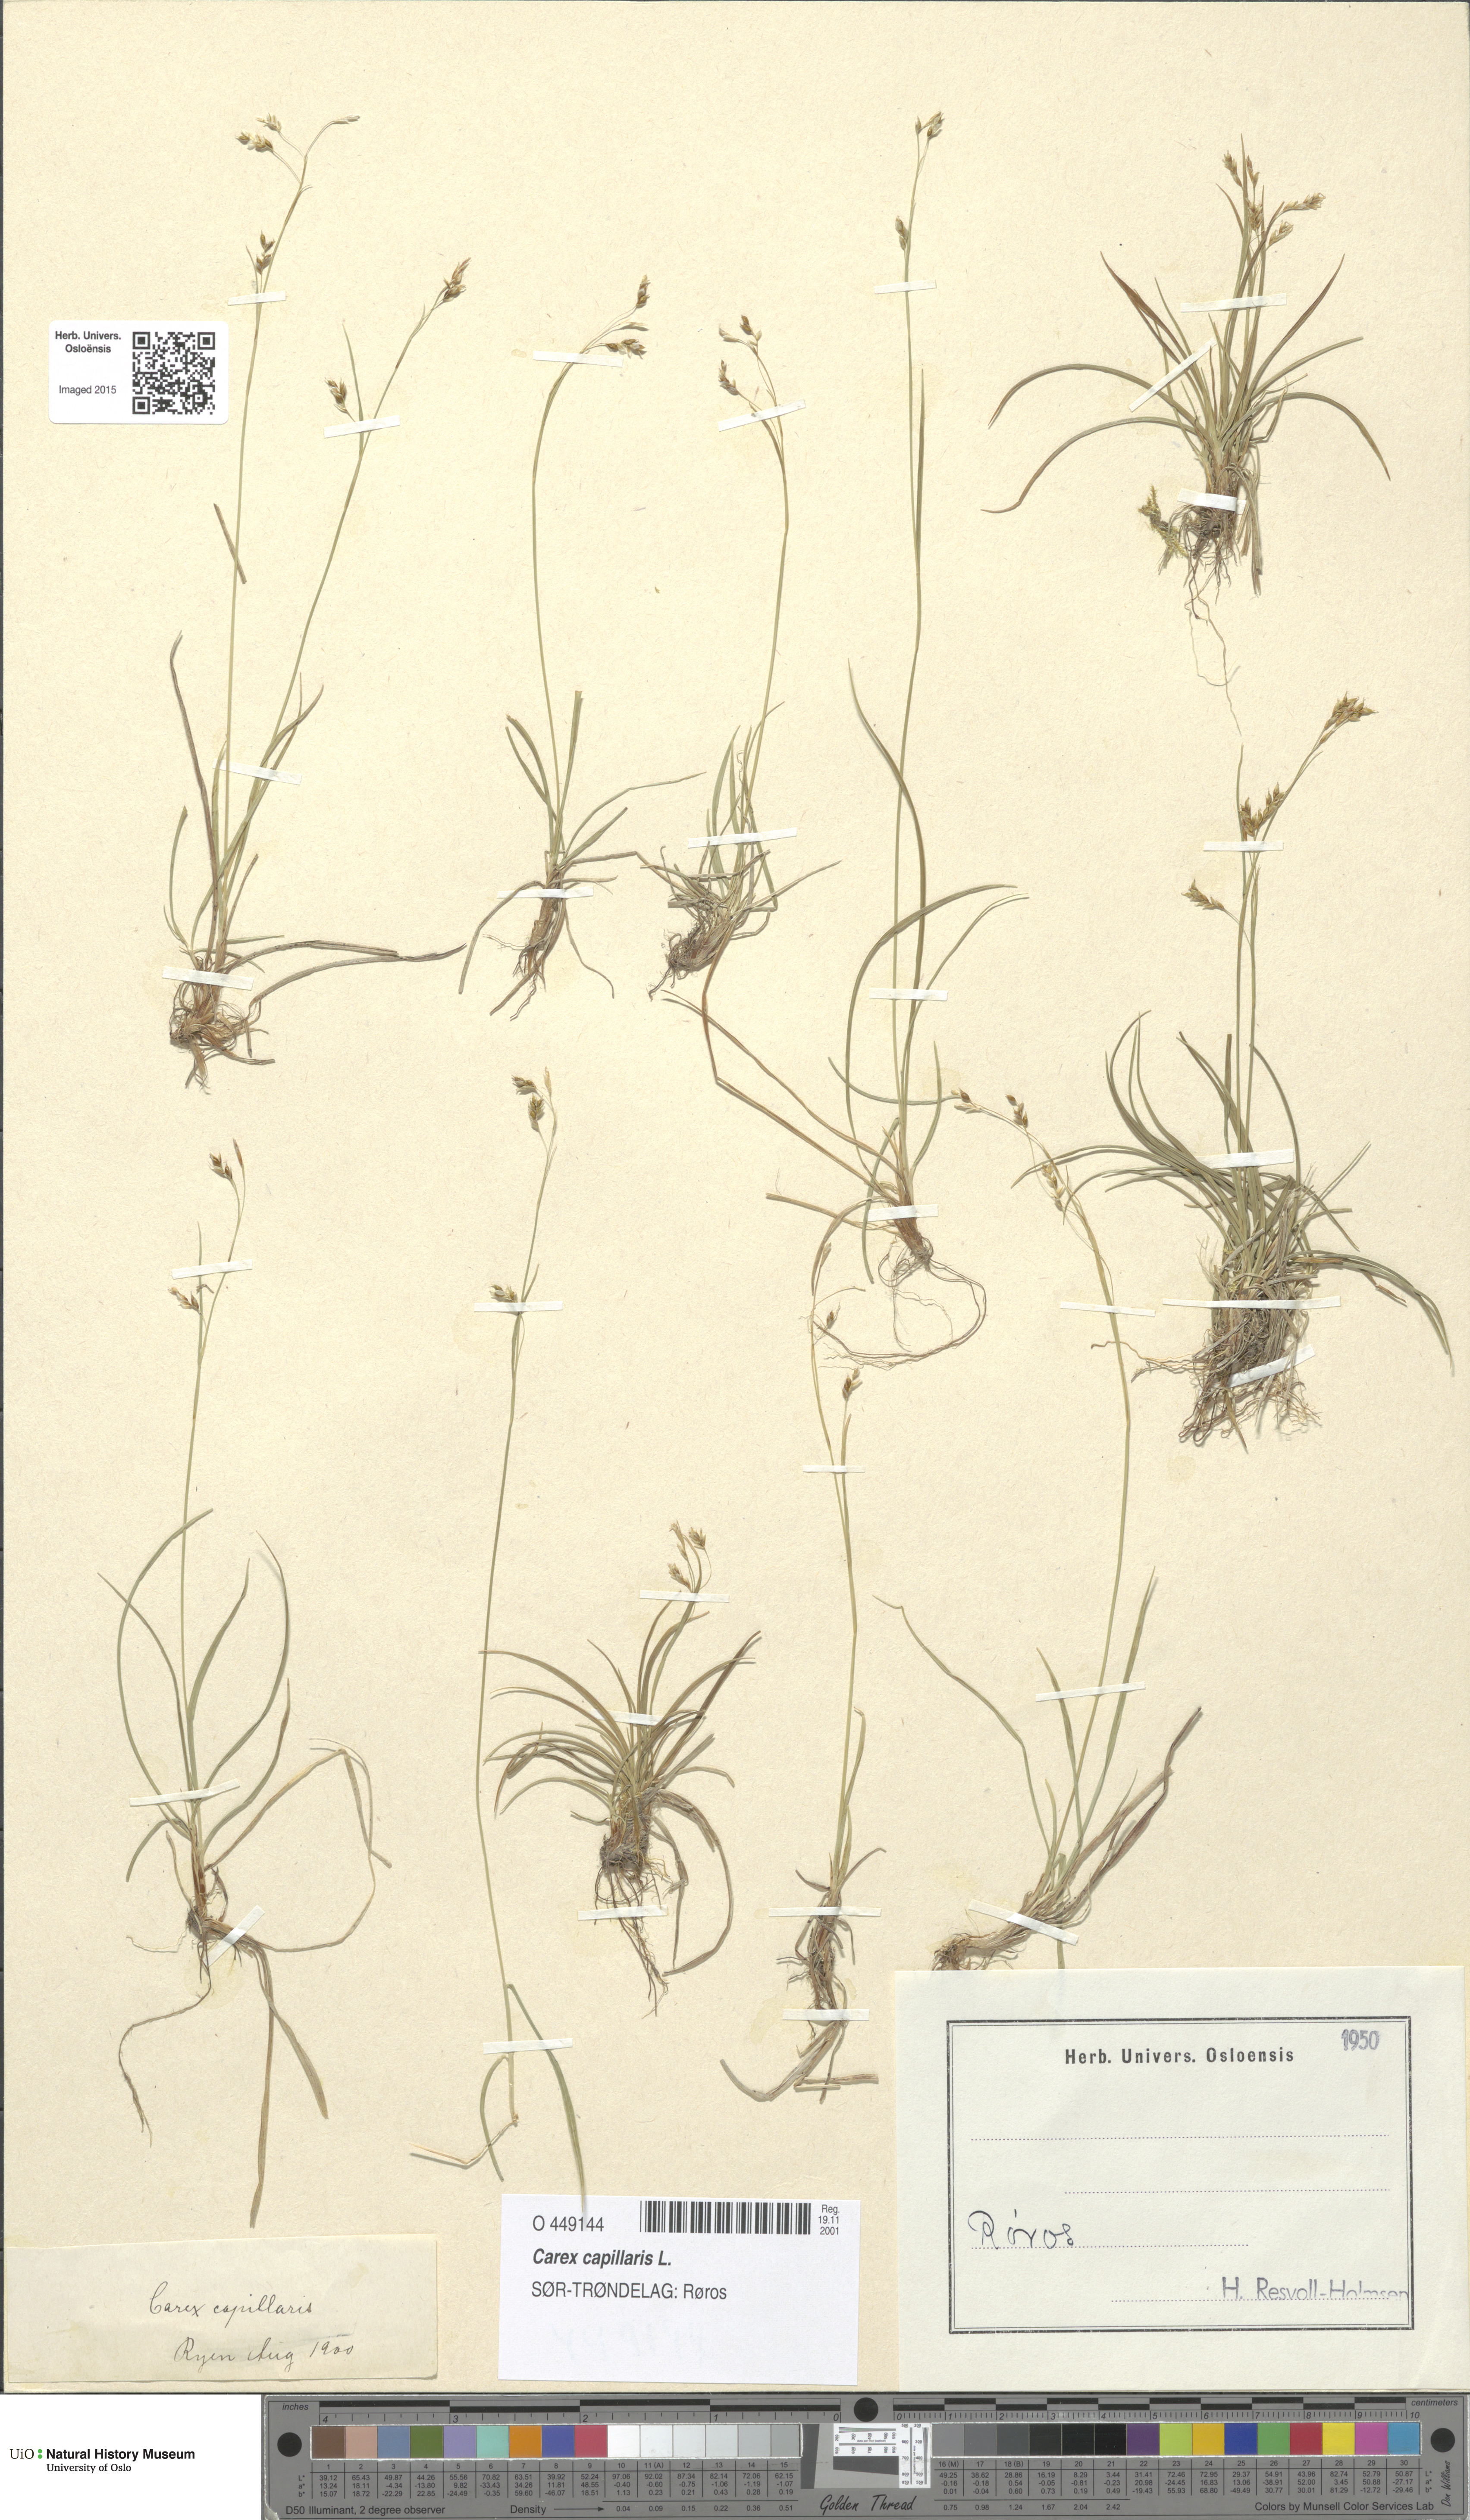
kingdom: Plantae
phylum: Tracheophyta
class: Liliopsida
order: Poales
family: Cyperaceae
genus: Carex
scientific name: Carex capillaris
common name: Hair sedge
